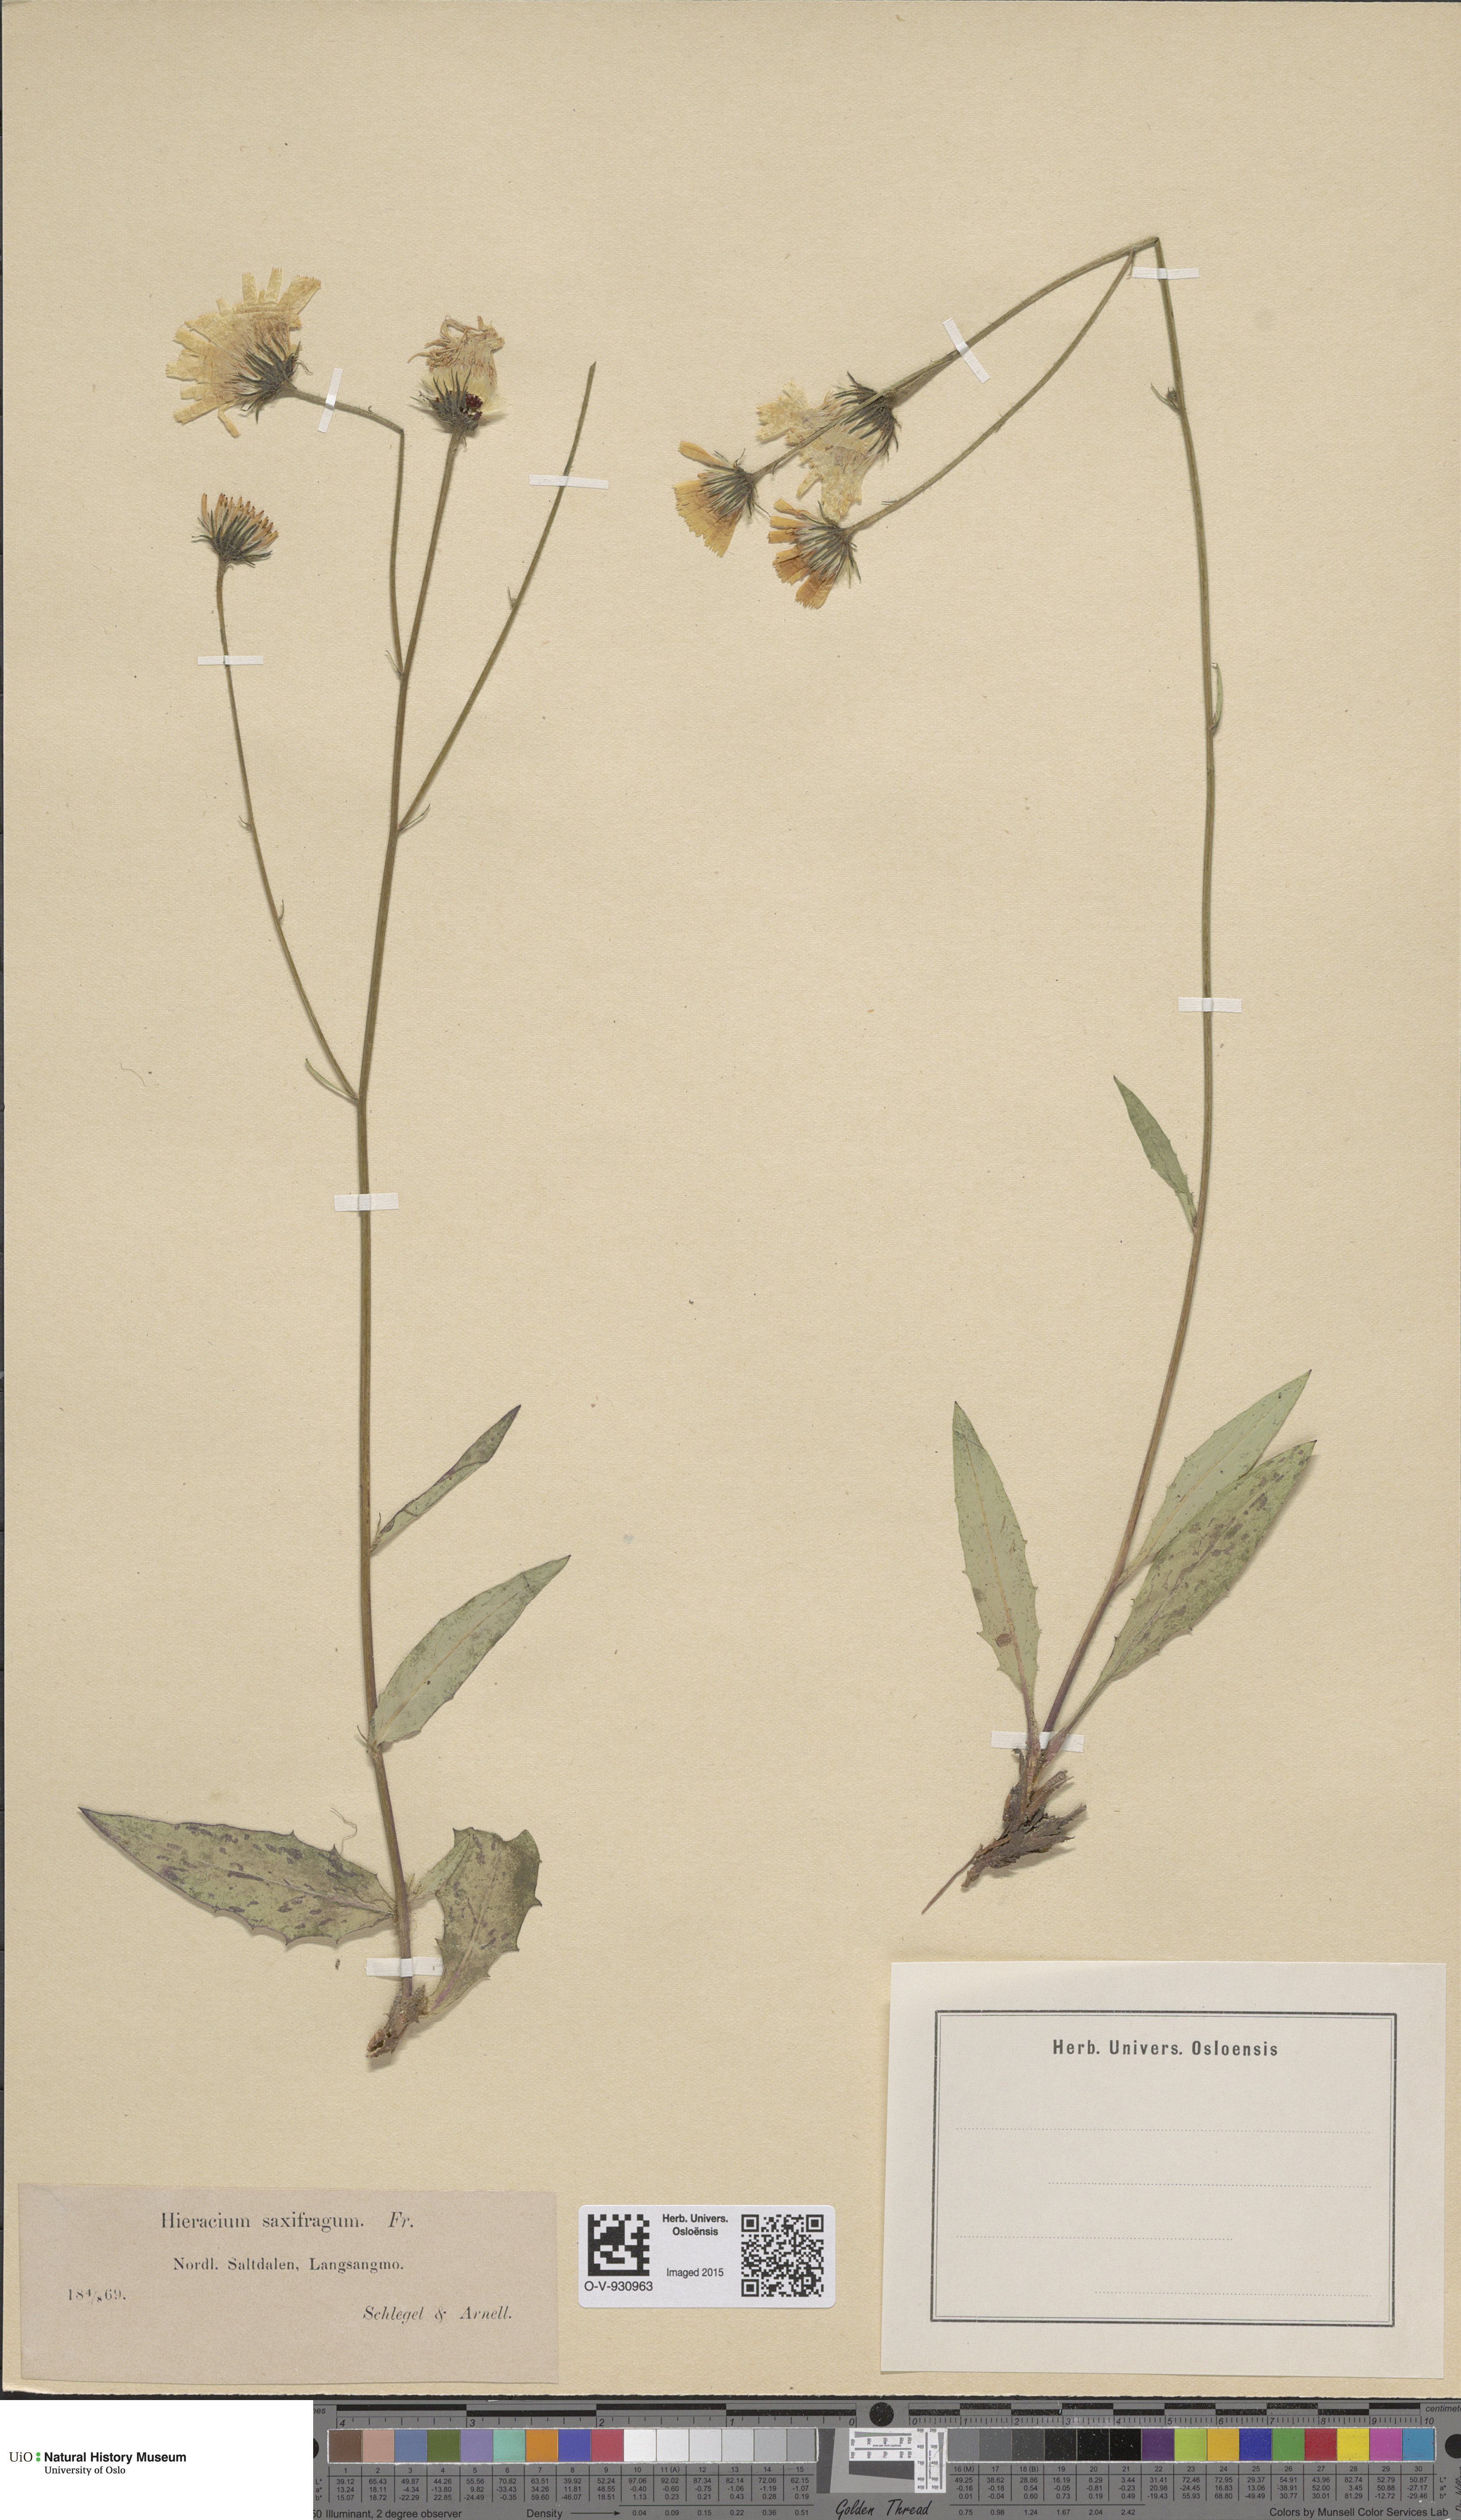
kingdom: Plantae
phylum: Tracheophyta
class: Magnoliopsida
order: Asterales
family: Asteraceae
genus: Hieracium
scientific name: Hieracium saxifragum
